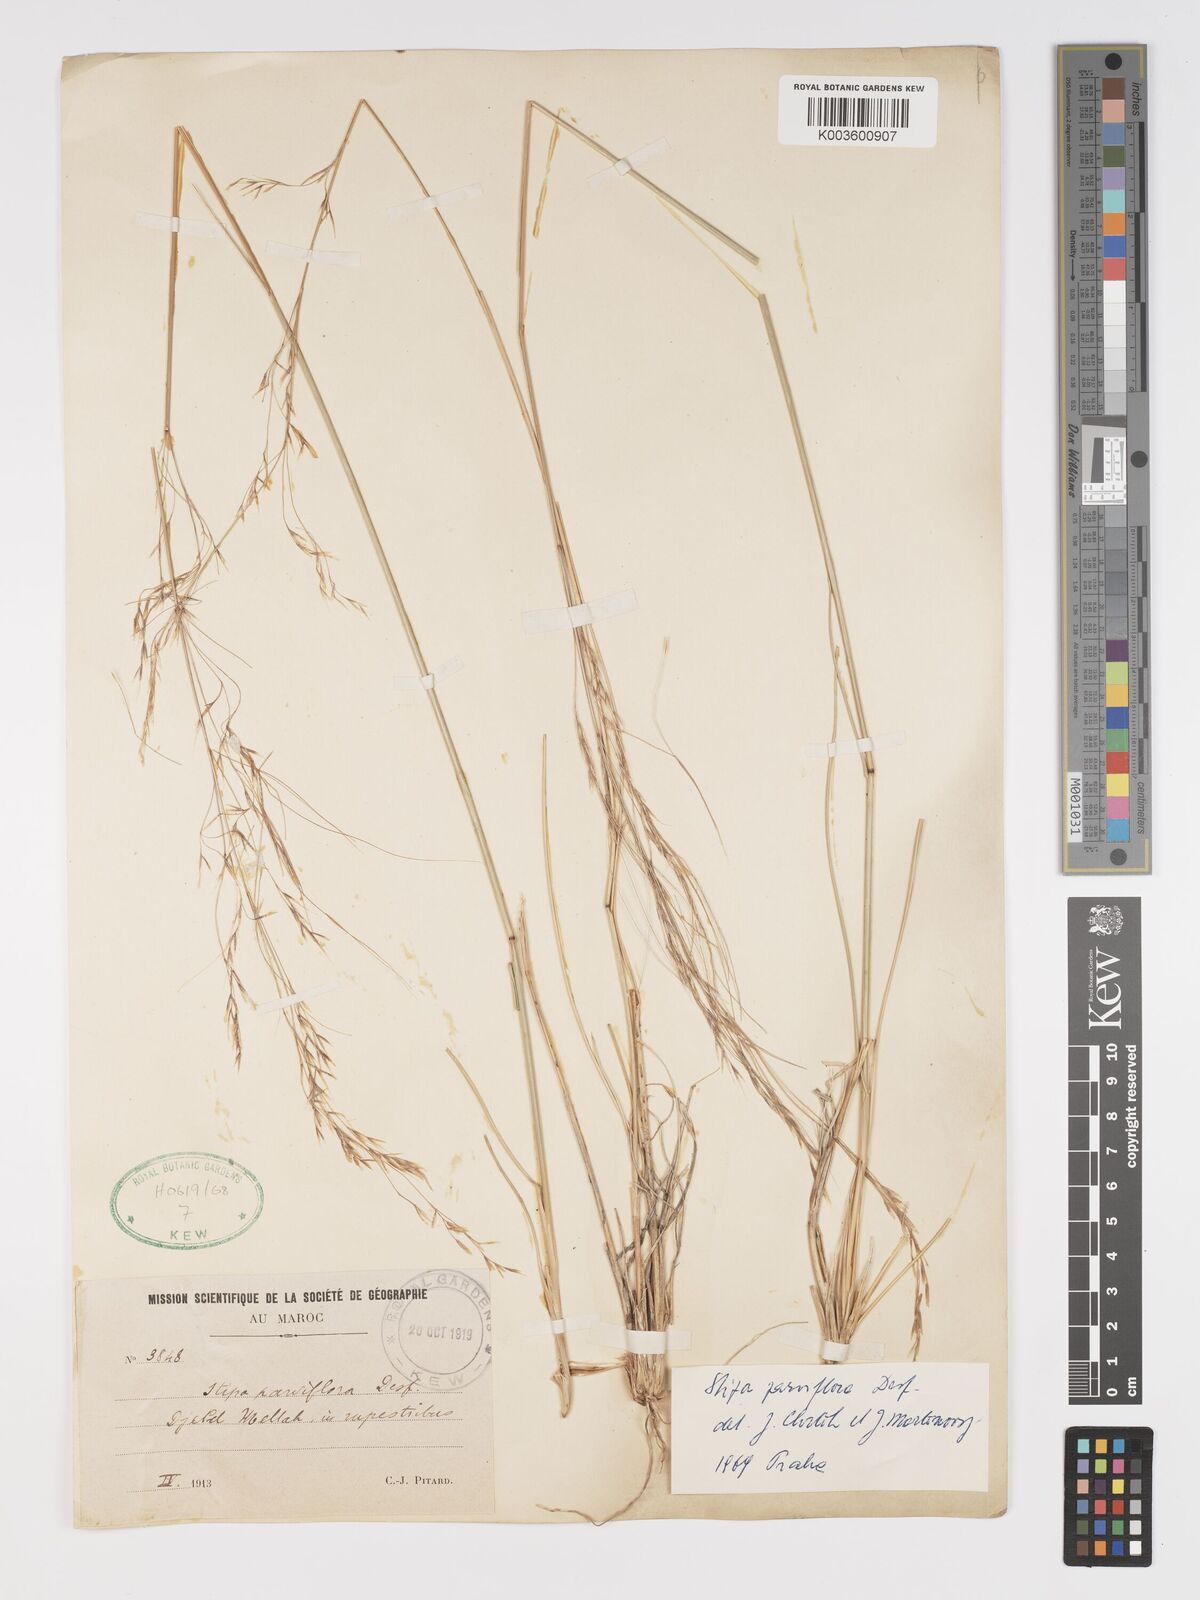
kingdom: Plantae
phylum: Tracheophyta
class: Liliopsida
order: Poales
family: Poaceae
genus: Achnatherum
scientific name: Achnatherum parviflorum
